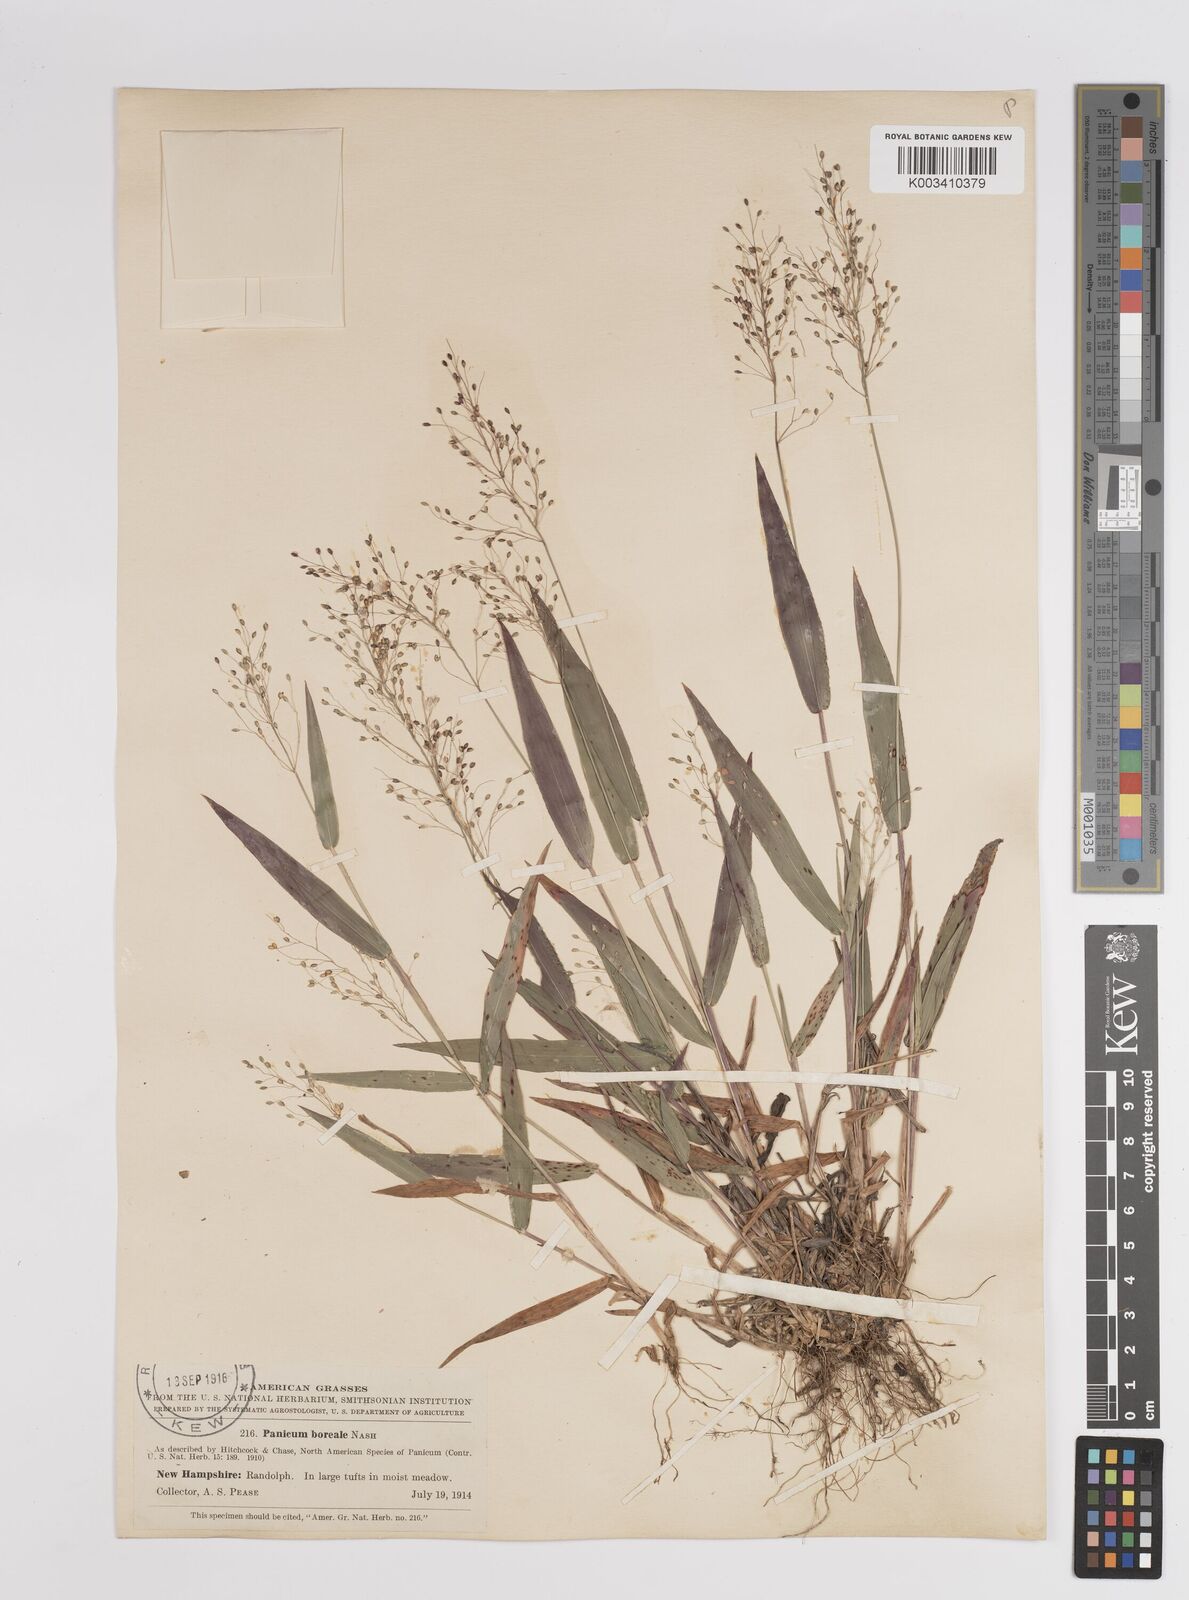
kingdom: Plantae
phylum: Tracheophyta
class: Liliopsida
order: Poales
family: Poaceae
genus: Dichanthelium
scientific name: Dichanthelium boreale
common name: Northern panicgrass
